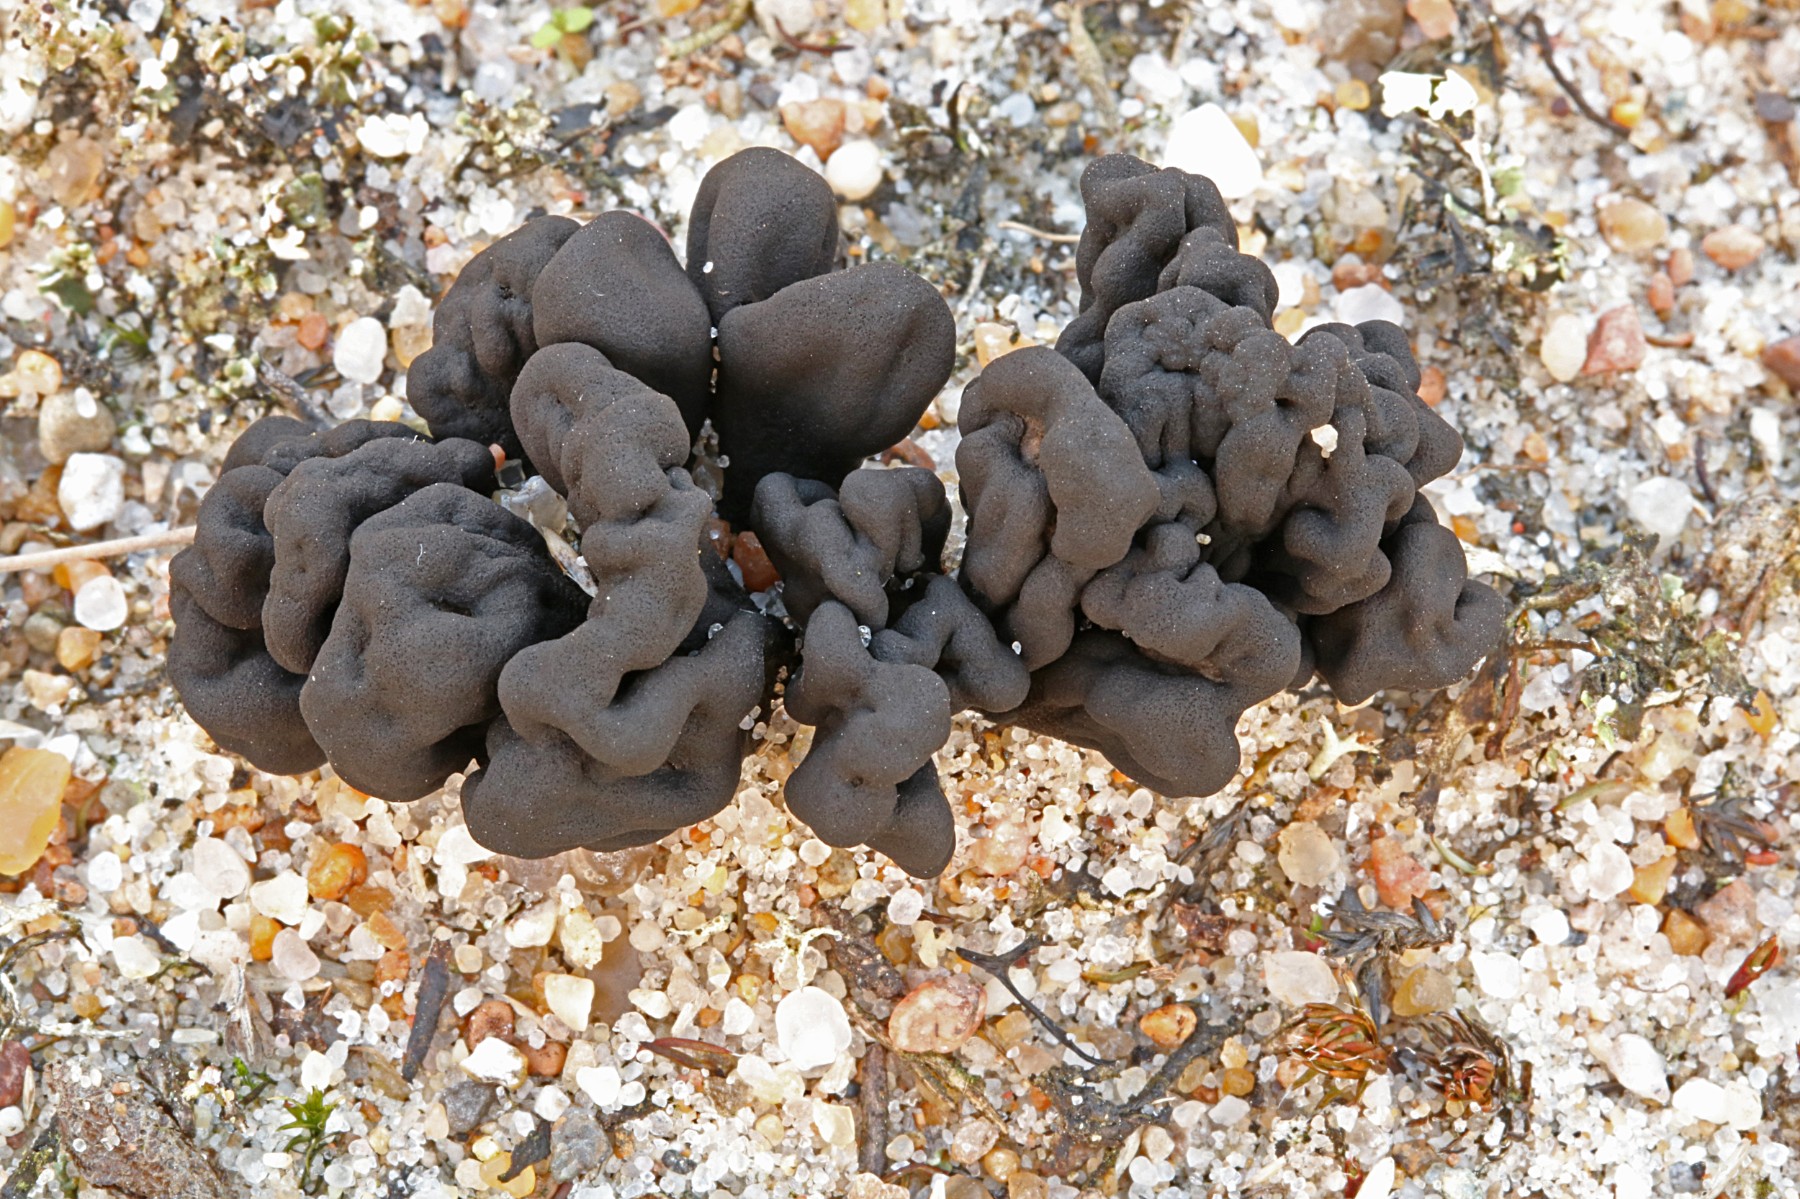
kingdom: Fungi
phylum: Ascomycota
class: Geoglossomycetes
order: Geoglossales
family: Geoglossaceae
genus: Sabuloglossum
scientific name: Sabuloglossum arenarium
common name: klit-jordtunge
